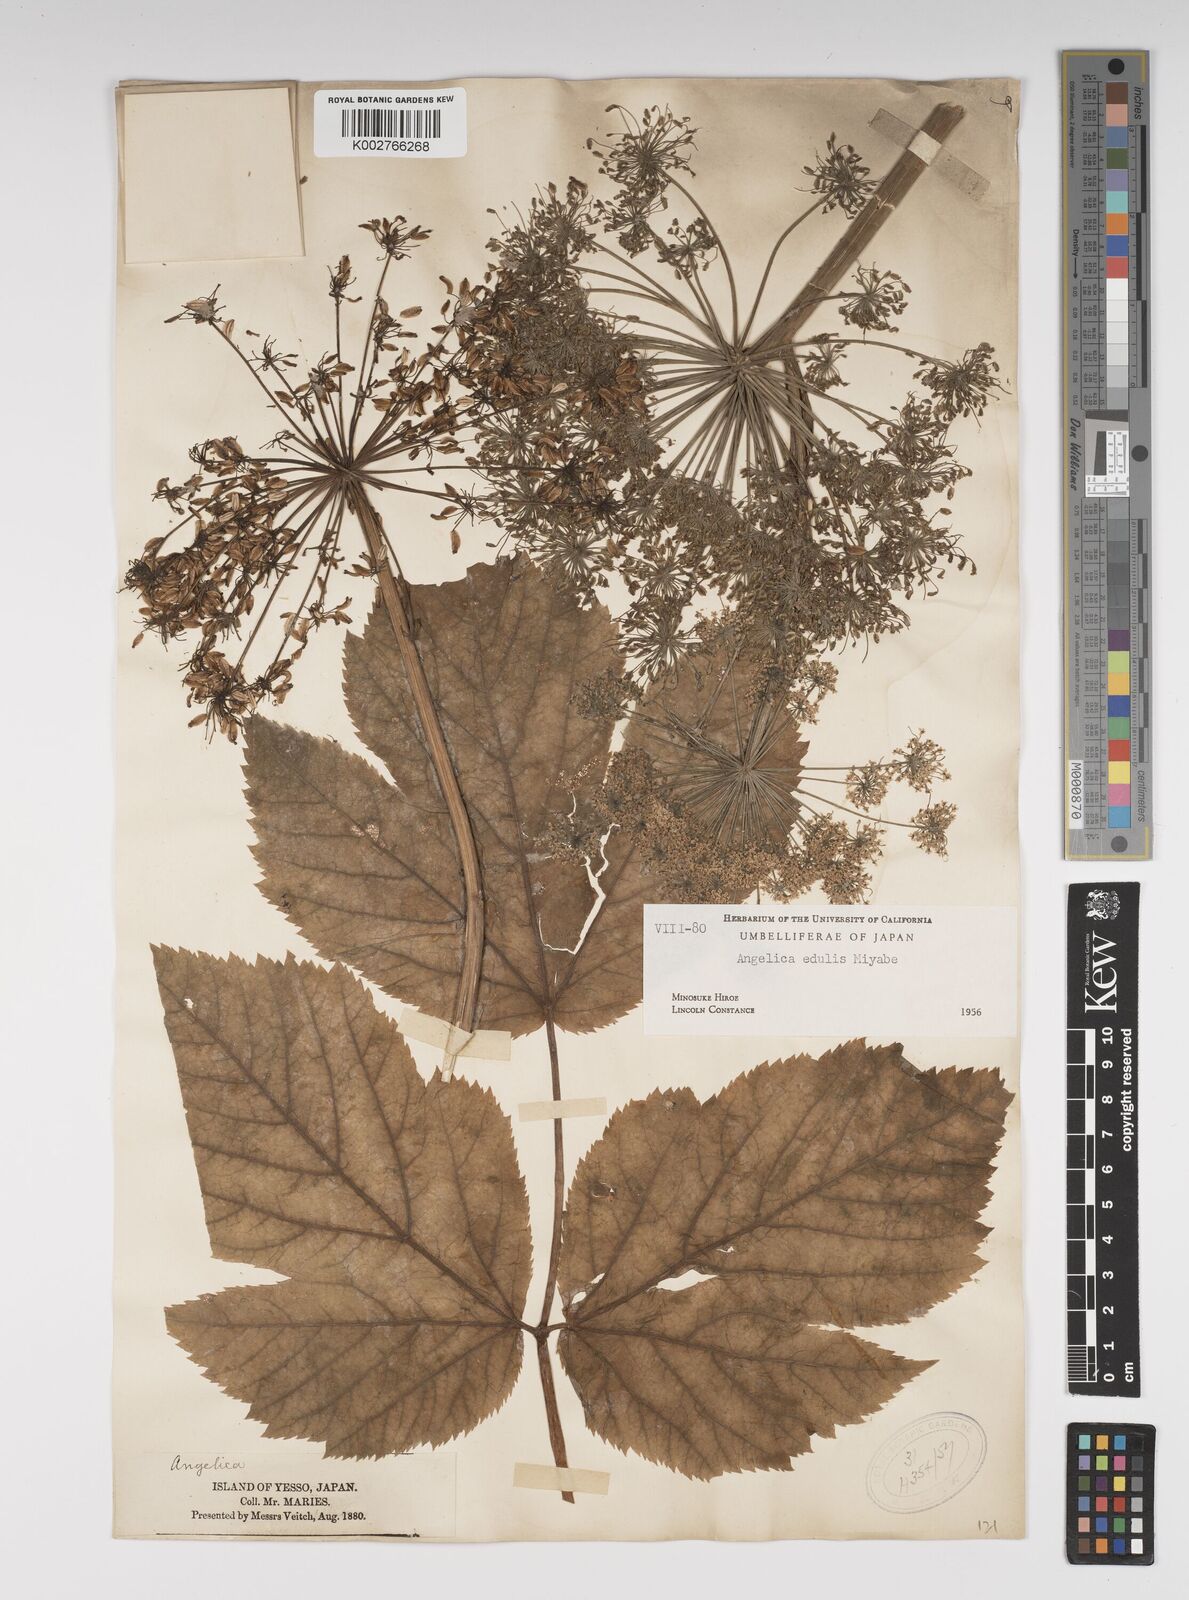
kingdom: Plantae
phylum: Tracheophyta
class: Magnoliopsida
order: Apiales
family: Apiaceae
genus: Angelica
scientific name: Angelica edulis
